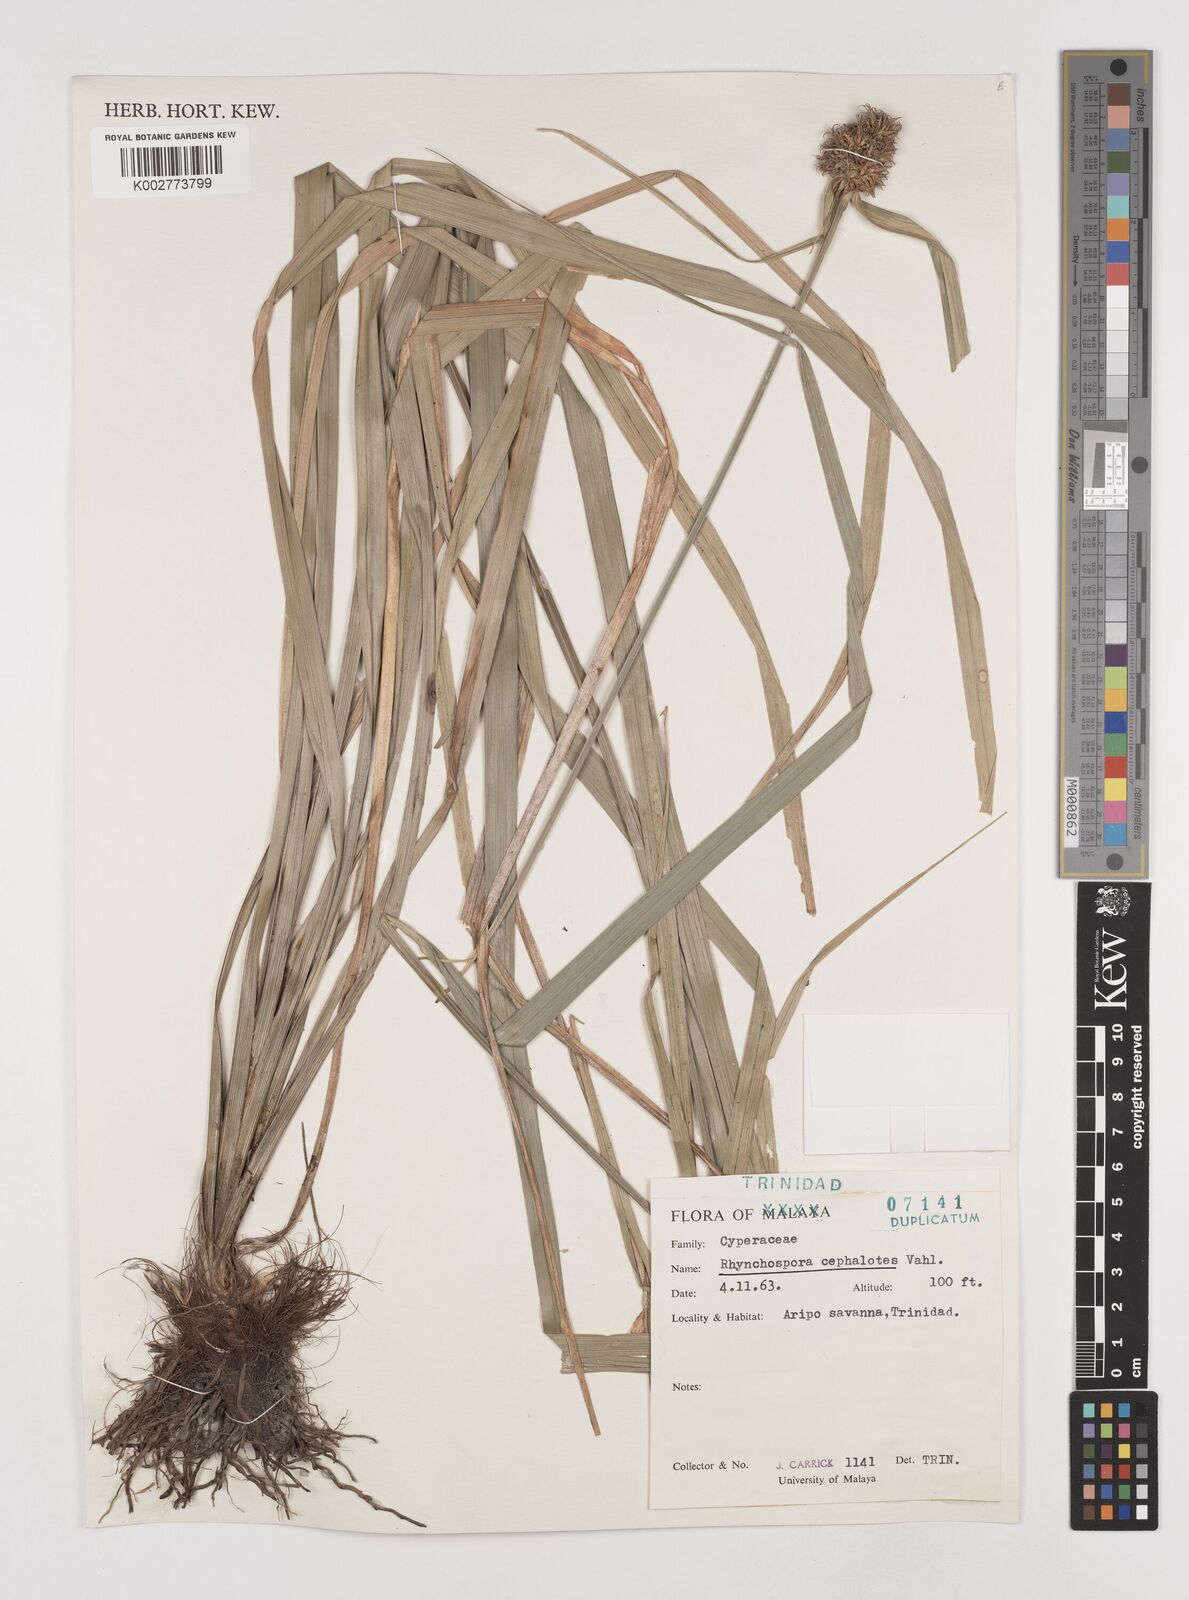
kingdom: Plantae
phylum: Tracheophyta
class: Liliopsida
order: Poales
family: Cyperaceae
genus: Rhynchospora
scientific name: Rhynchospora cephalotes
